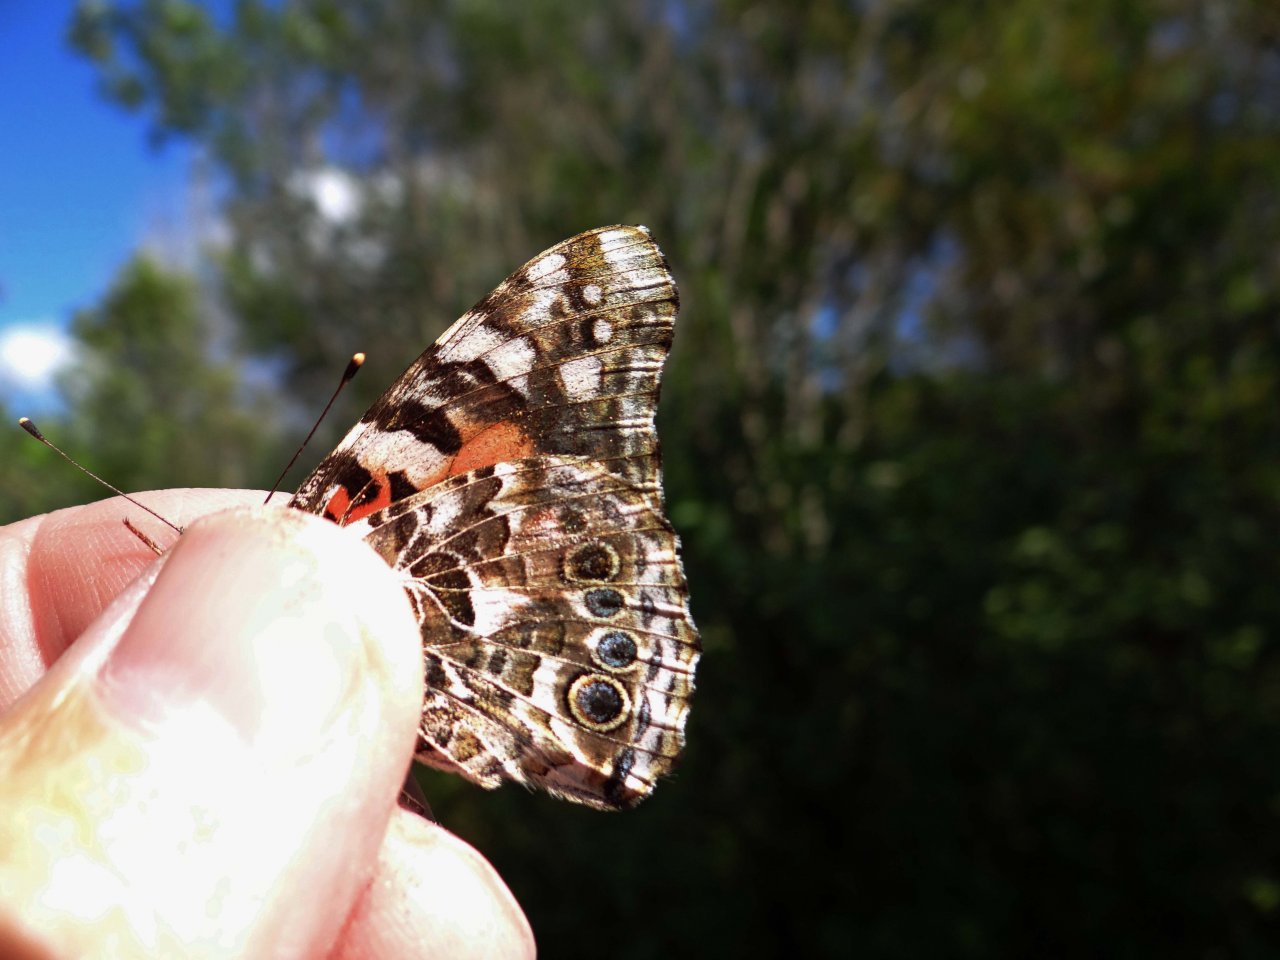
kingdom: Animalia
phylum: Arthropoda
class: Insecta
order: Lepidoptera
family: Nymphalidae
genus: Vanessa
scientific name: Vanessa cardui
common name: Painted Lady
